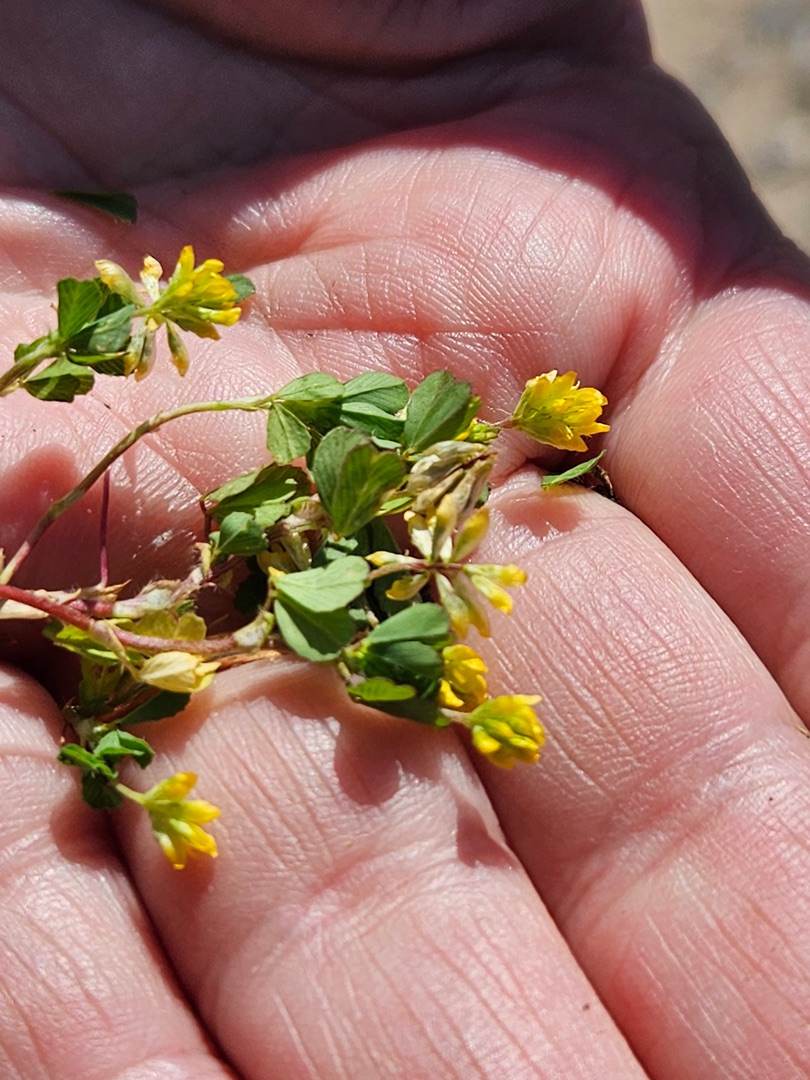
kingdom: Plantae
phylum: Tracheophyta
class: Magnoliopsida
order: Fabales
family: Fabaceae
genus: Trifolium
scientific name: Trifolium dubium
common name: Fin kløver
